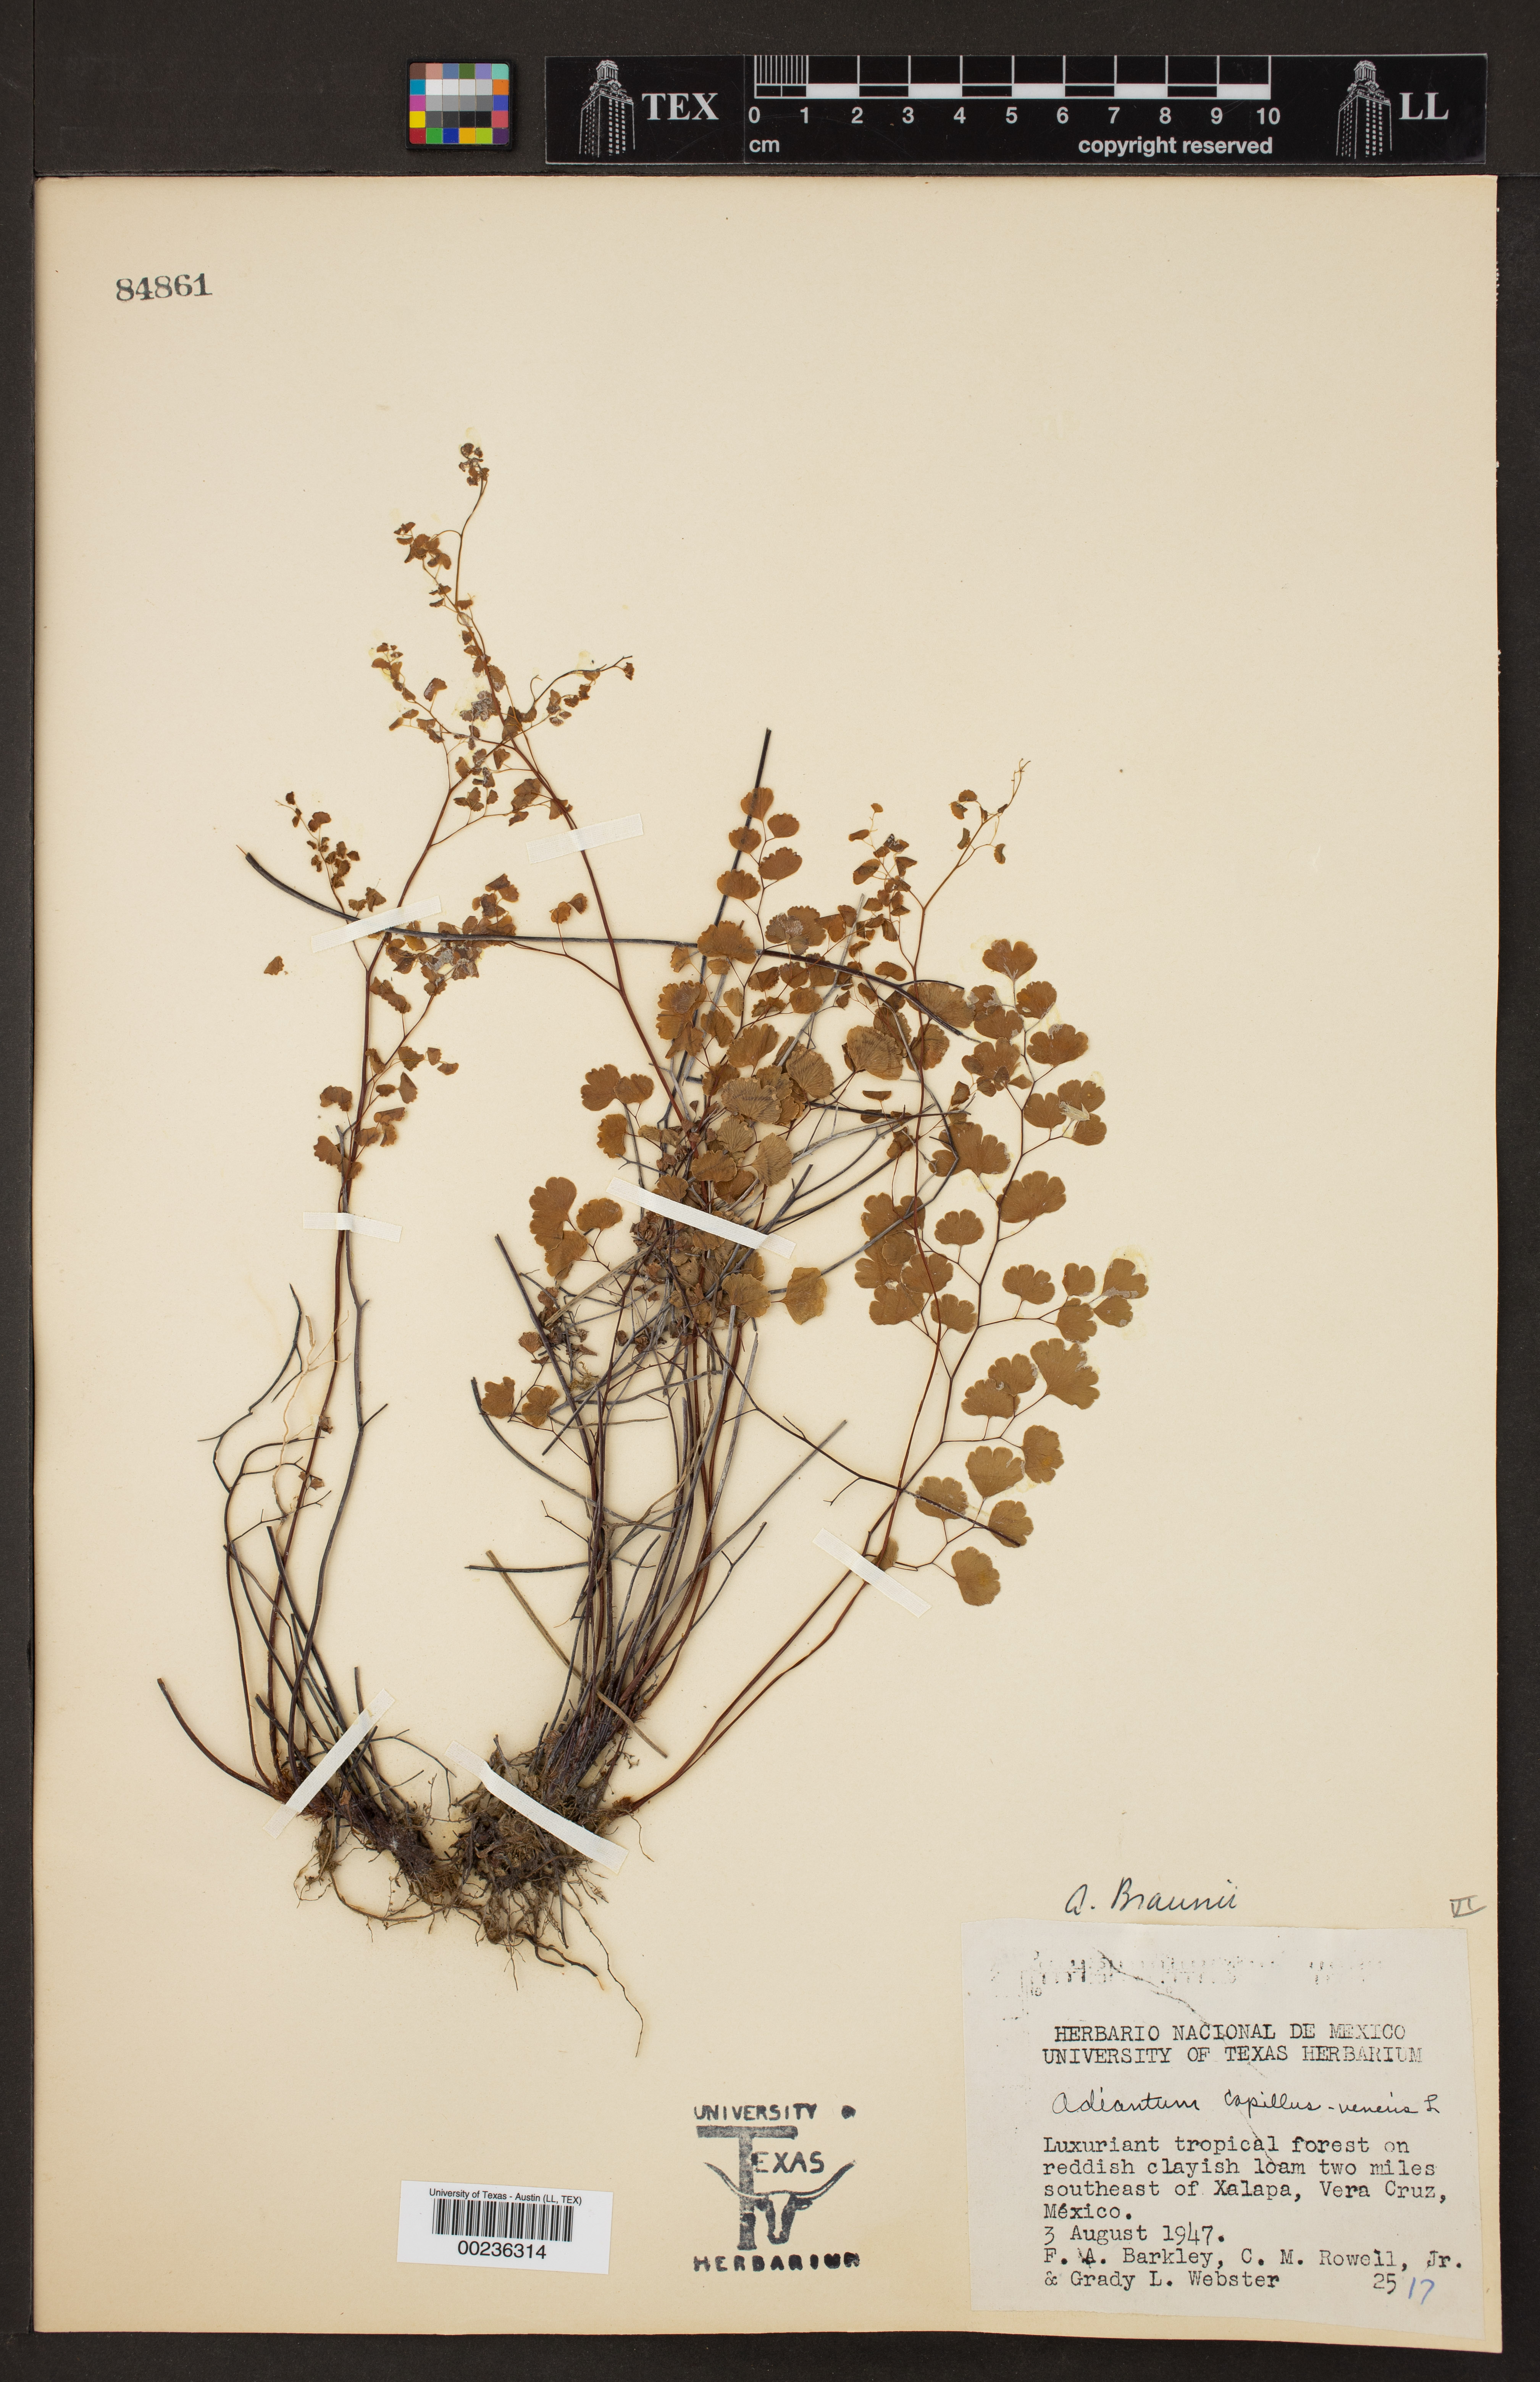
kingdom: Plantae
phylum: Tracheophyta
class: Polypodiopsida
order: Polypodiales
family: Pteridaceae
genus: Adiantum
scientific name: Adiantum braunii
